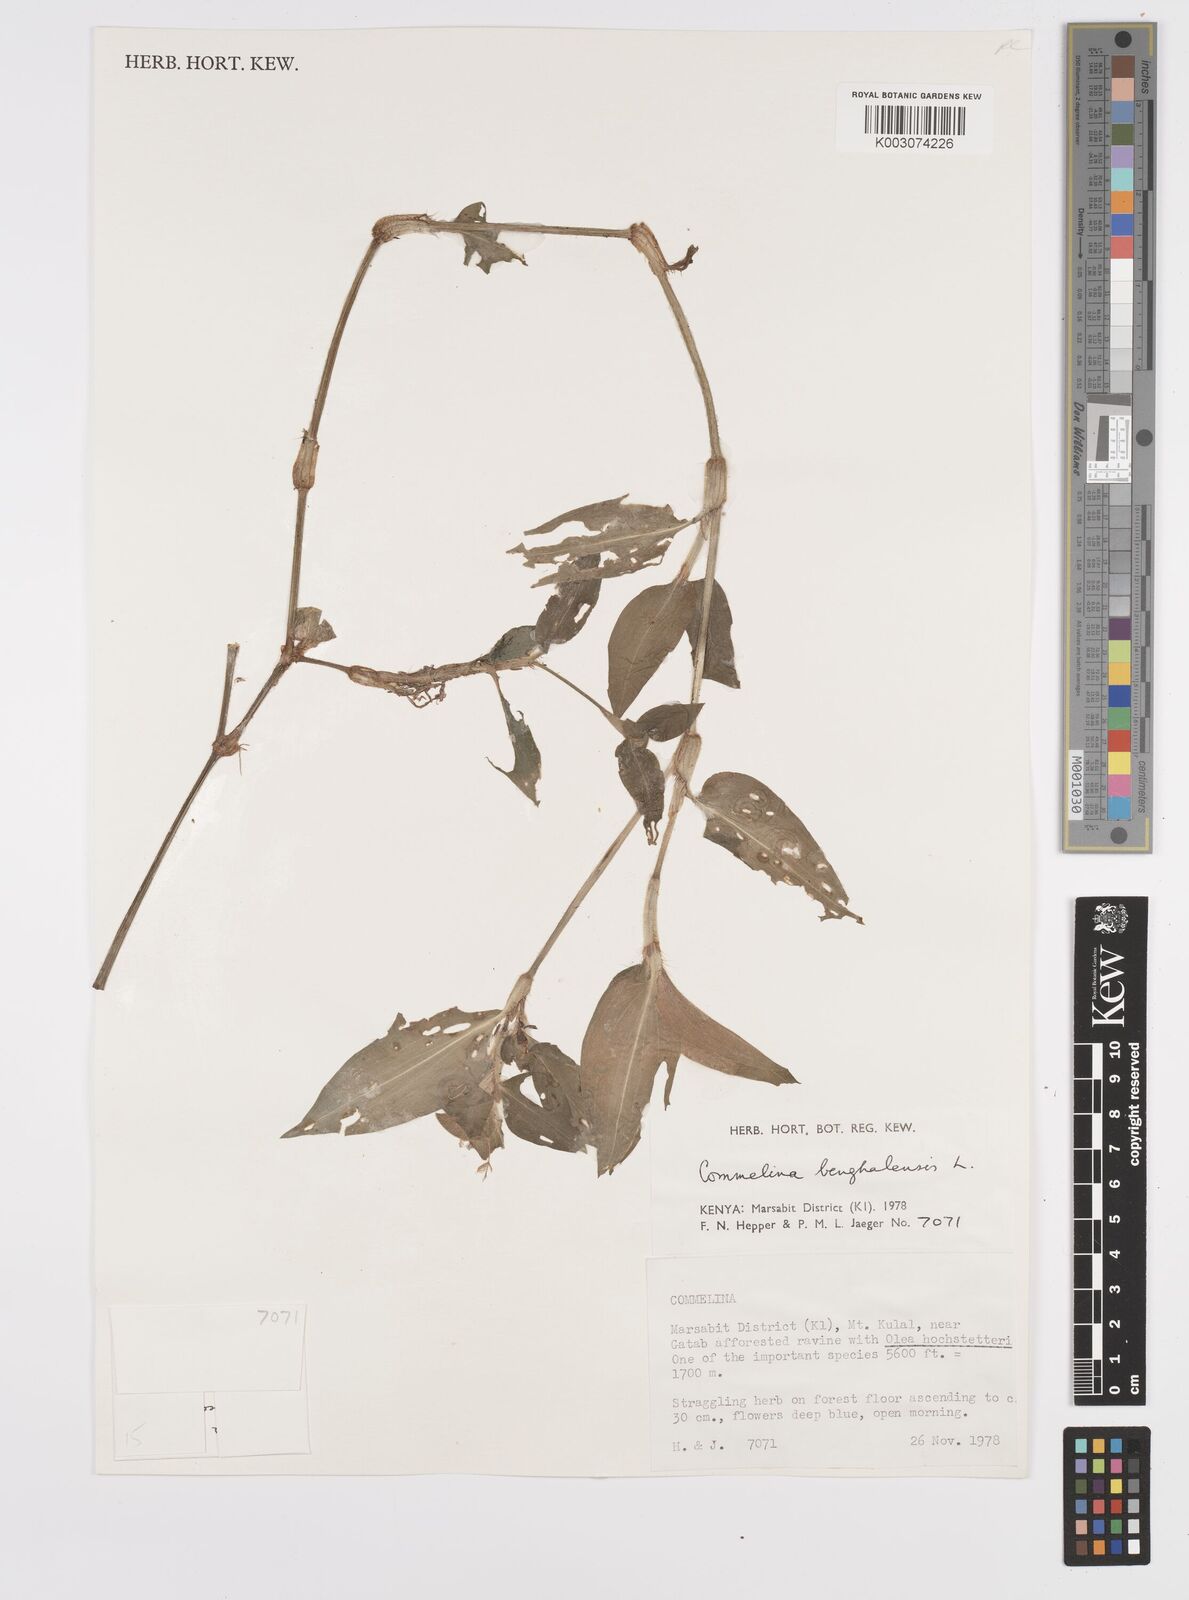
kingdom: Plantae
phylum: Tracheophyta
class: Liliopsida
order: Commelinales
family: Commelinaceae
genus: Commelina
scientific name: Commelina benghalensis
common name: Jio
